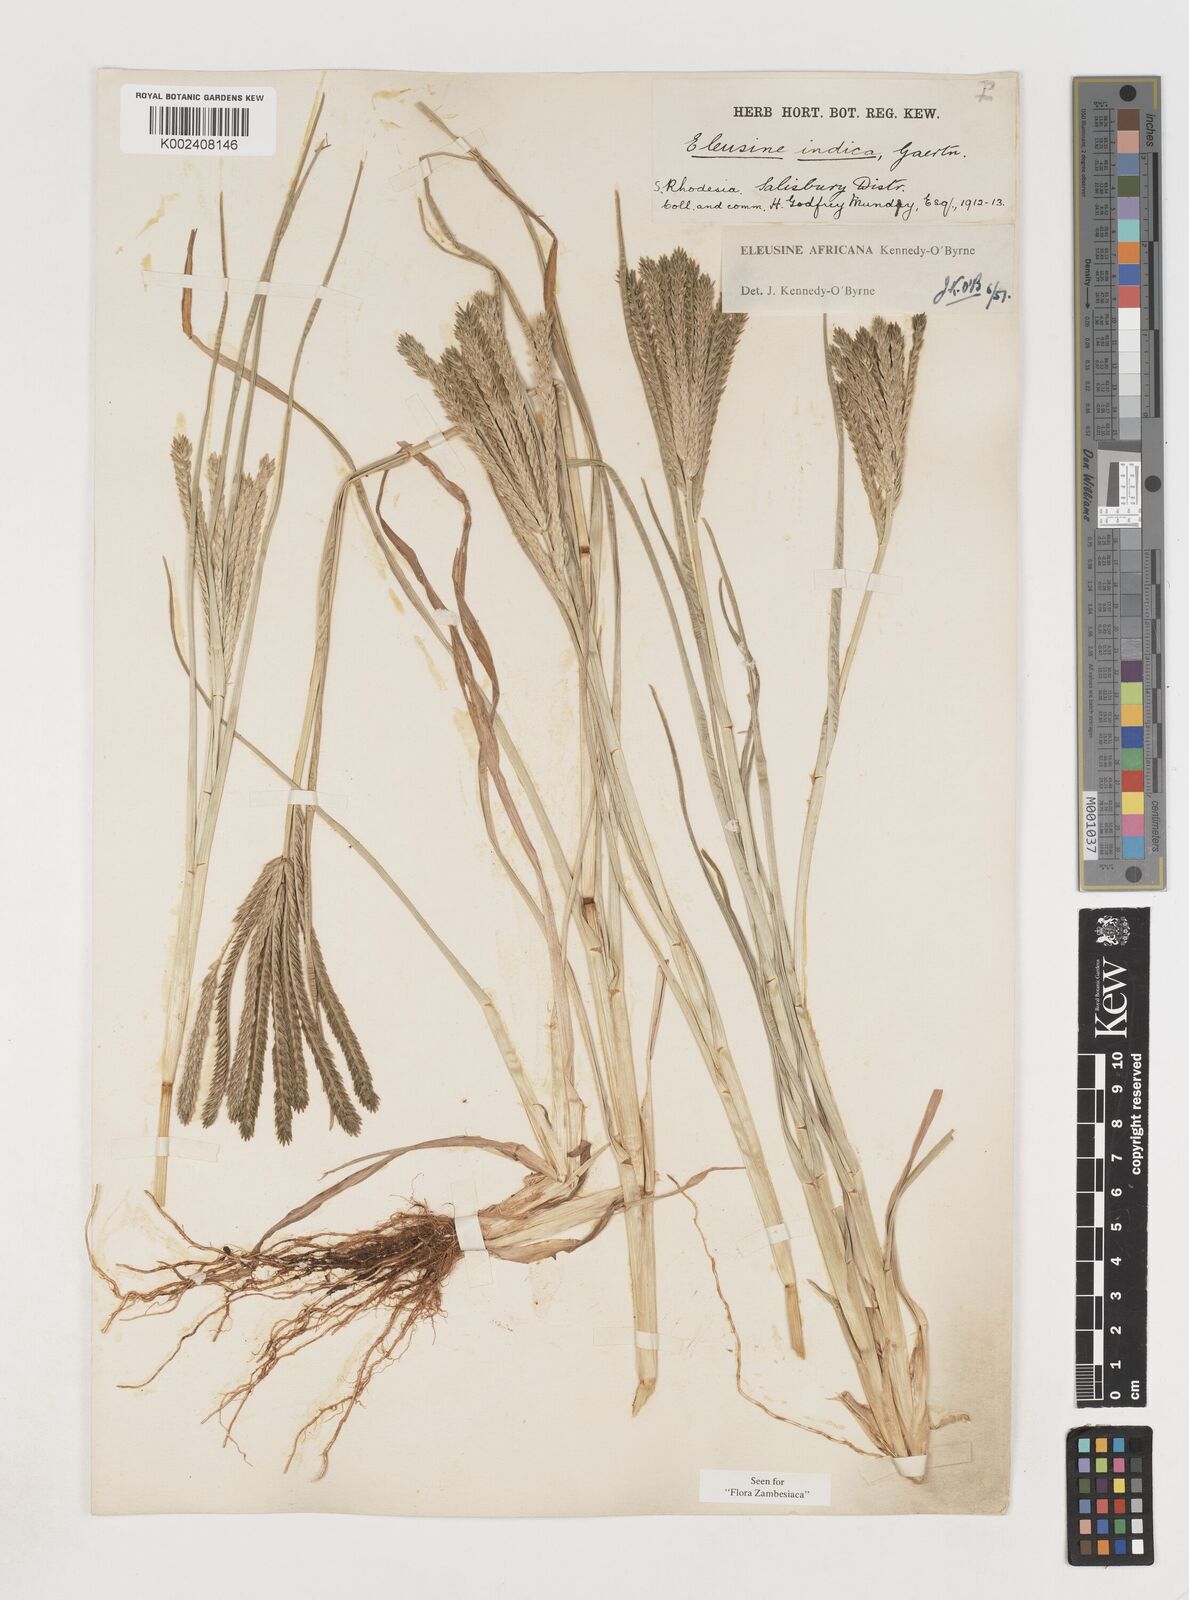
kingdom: Plantae
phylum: Tracheophyta
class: Liliopsida
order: Poales
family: Poaceae
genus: Eleusine
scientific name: Eleusine africana
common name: Wild african finger millet
